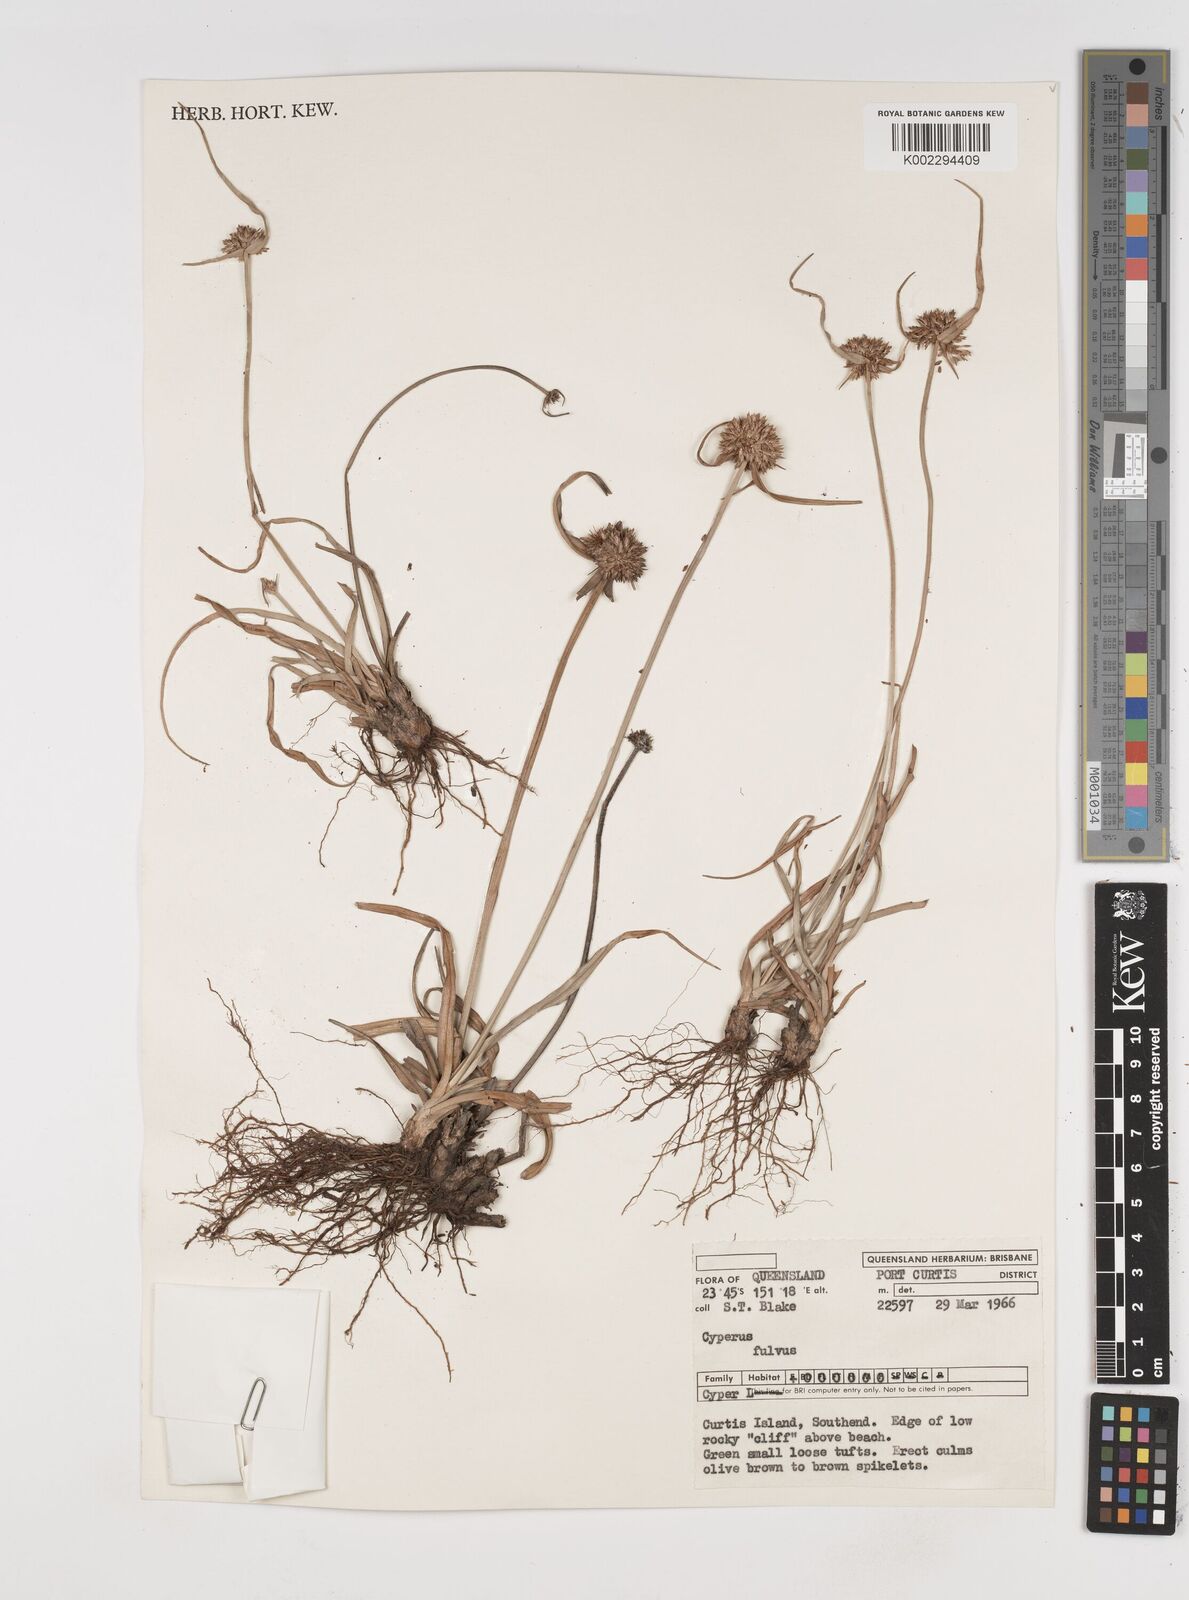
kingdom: Plantae
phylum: Tracheophyta
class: Liliopsida
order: Poales
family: Cyperaceae
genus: Cyperus
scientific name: Cyperus fulvus
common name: Sticky sedge
